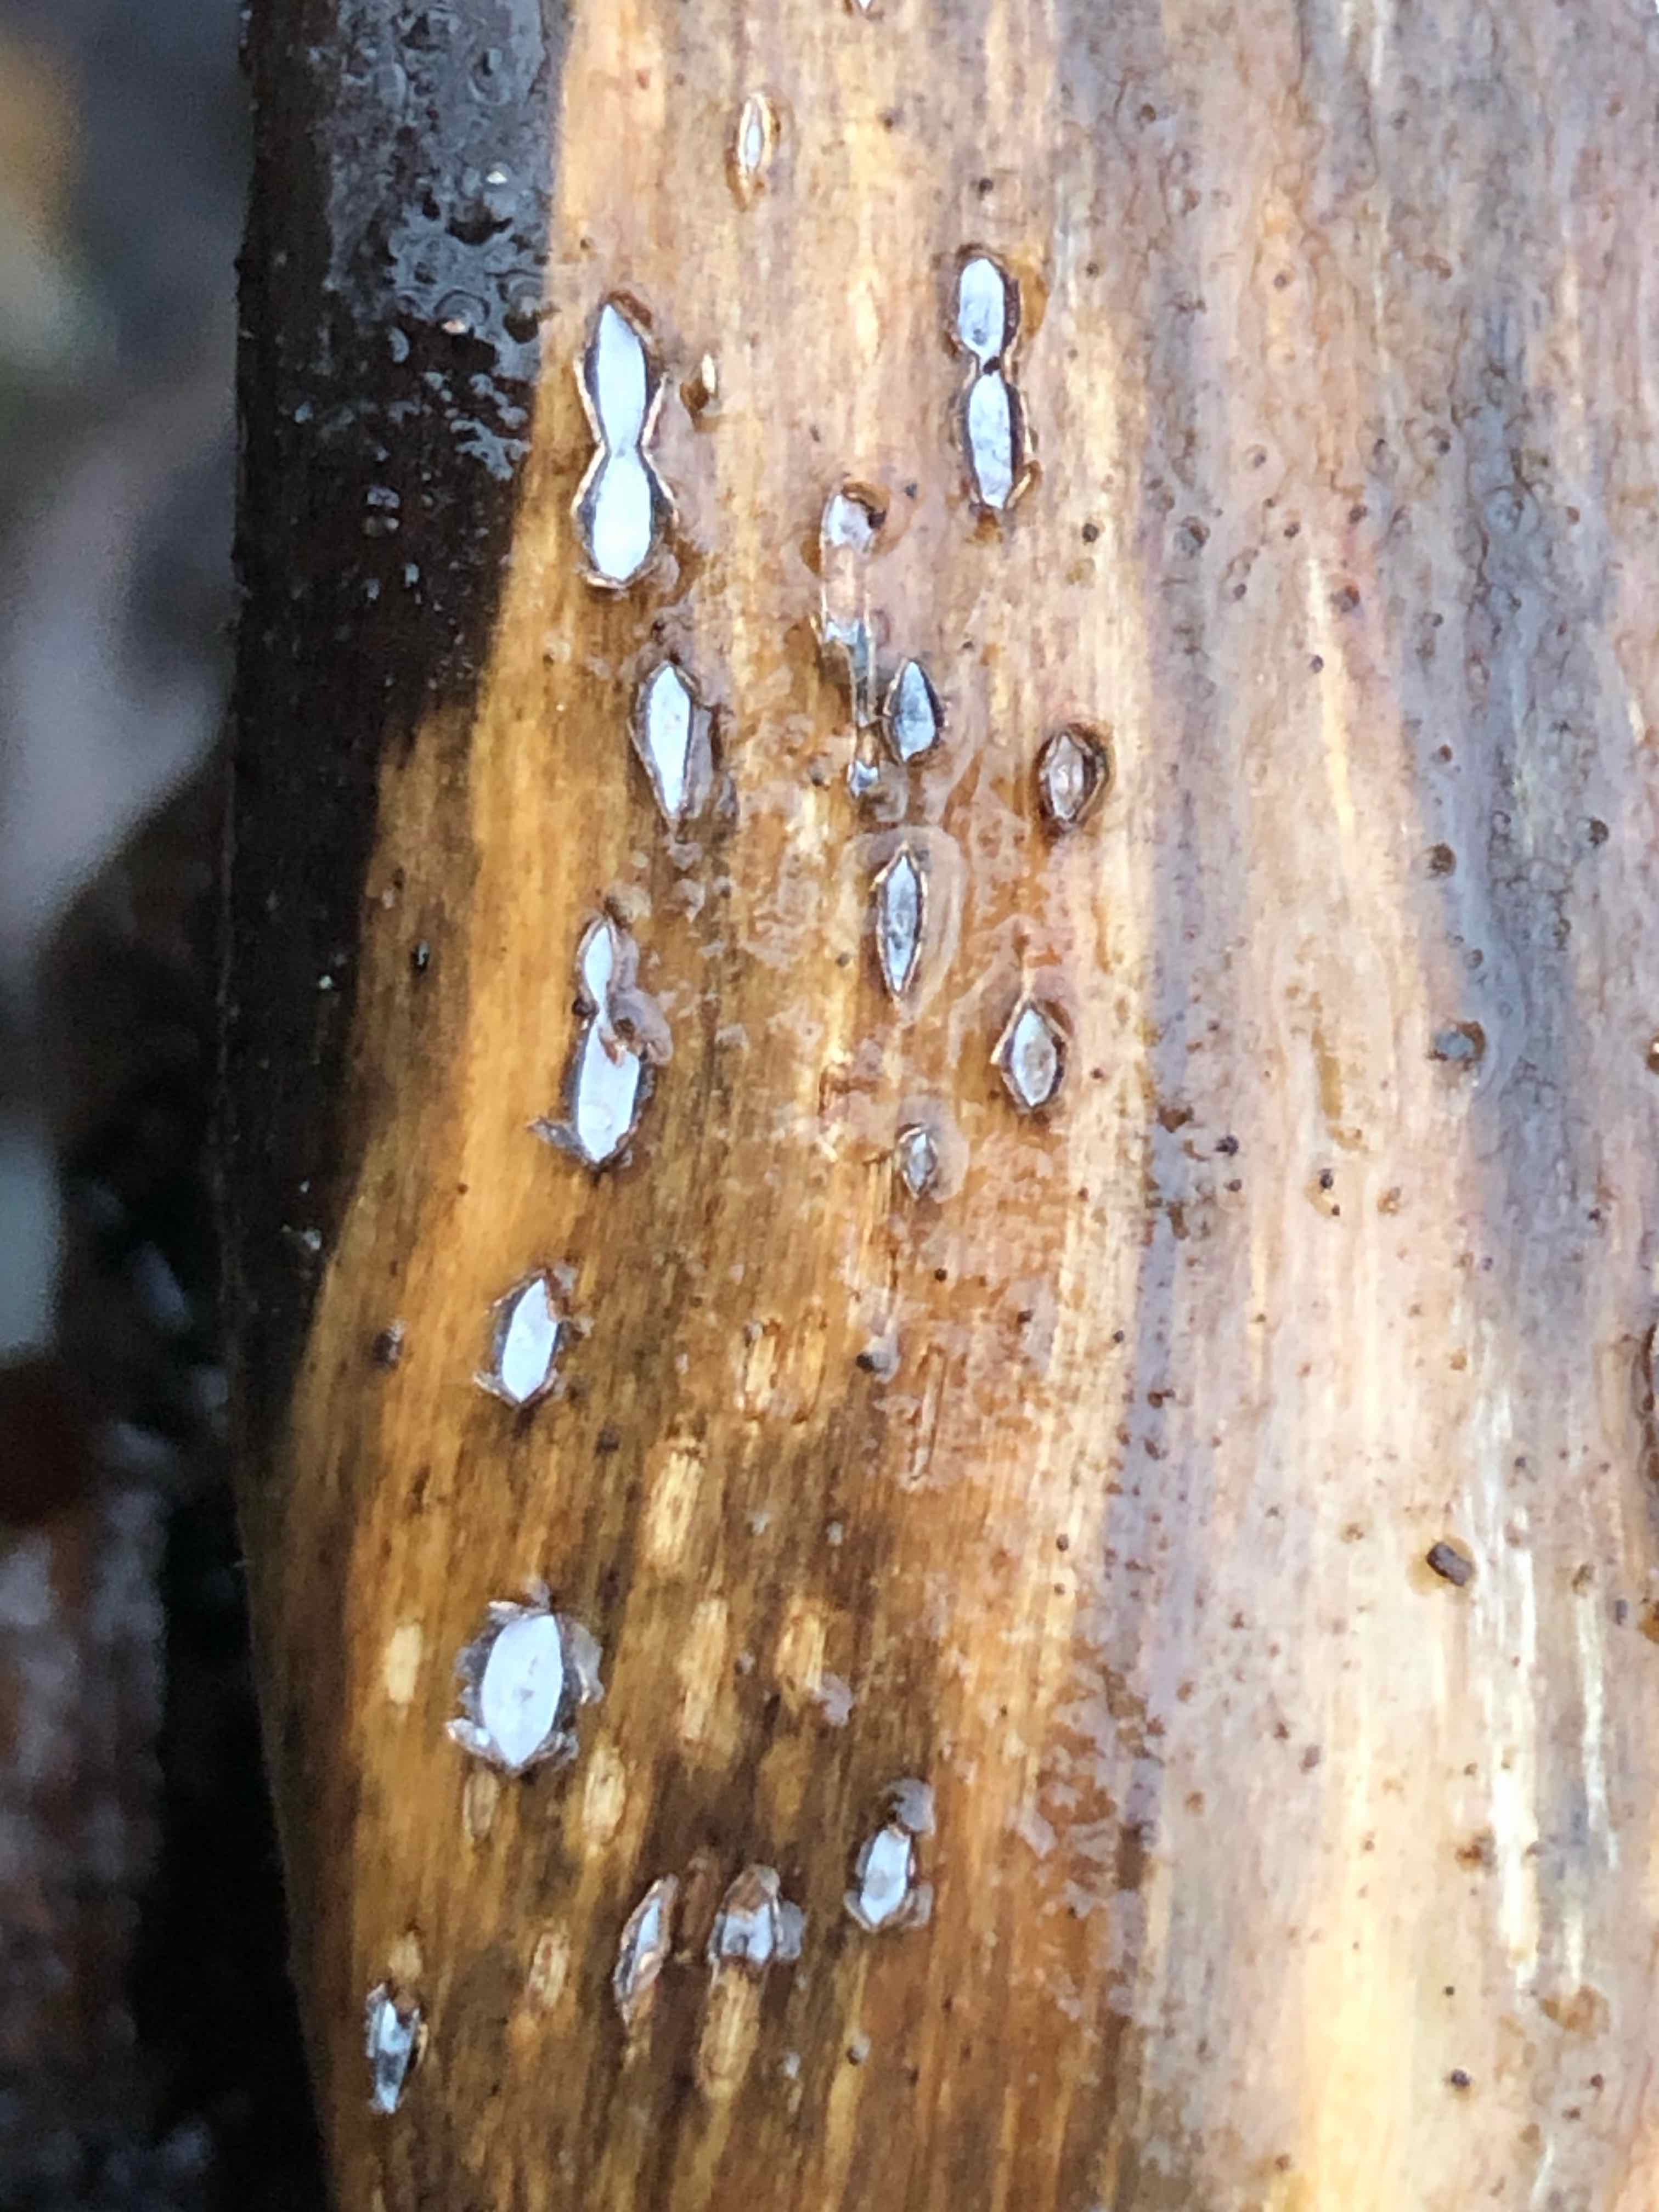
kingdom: Fungi
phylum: Ascomycota
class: Leotiomycetes
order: Chaetomellales
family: Marthamycetaceae
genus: Propolis
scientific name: Propolis farinosa
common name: almindelig vedsprængerskive
